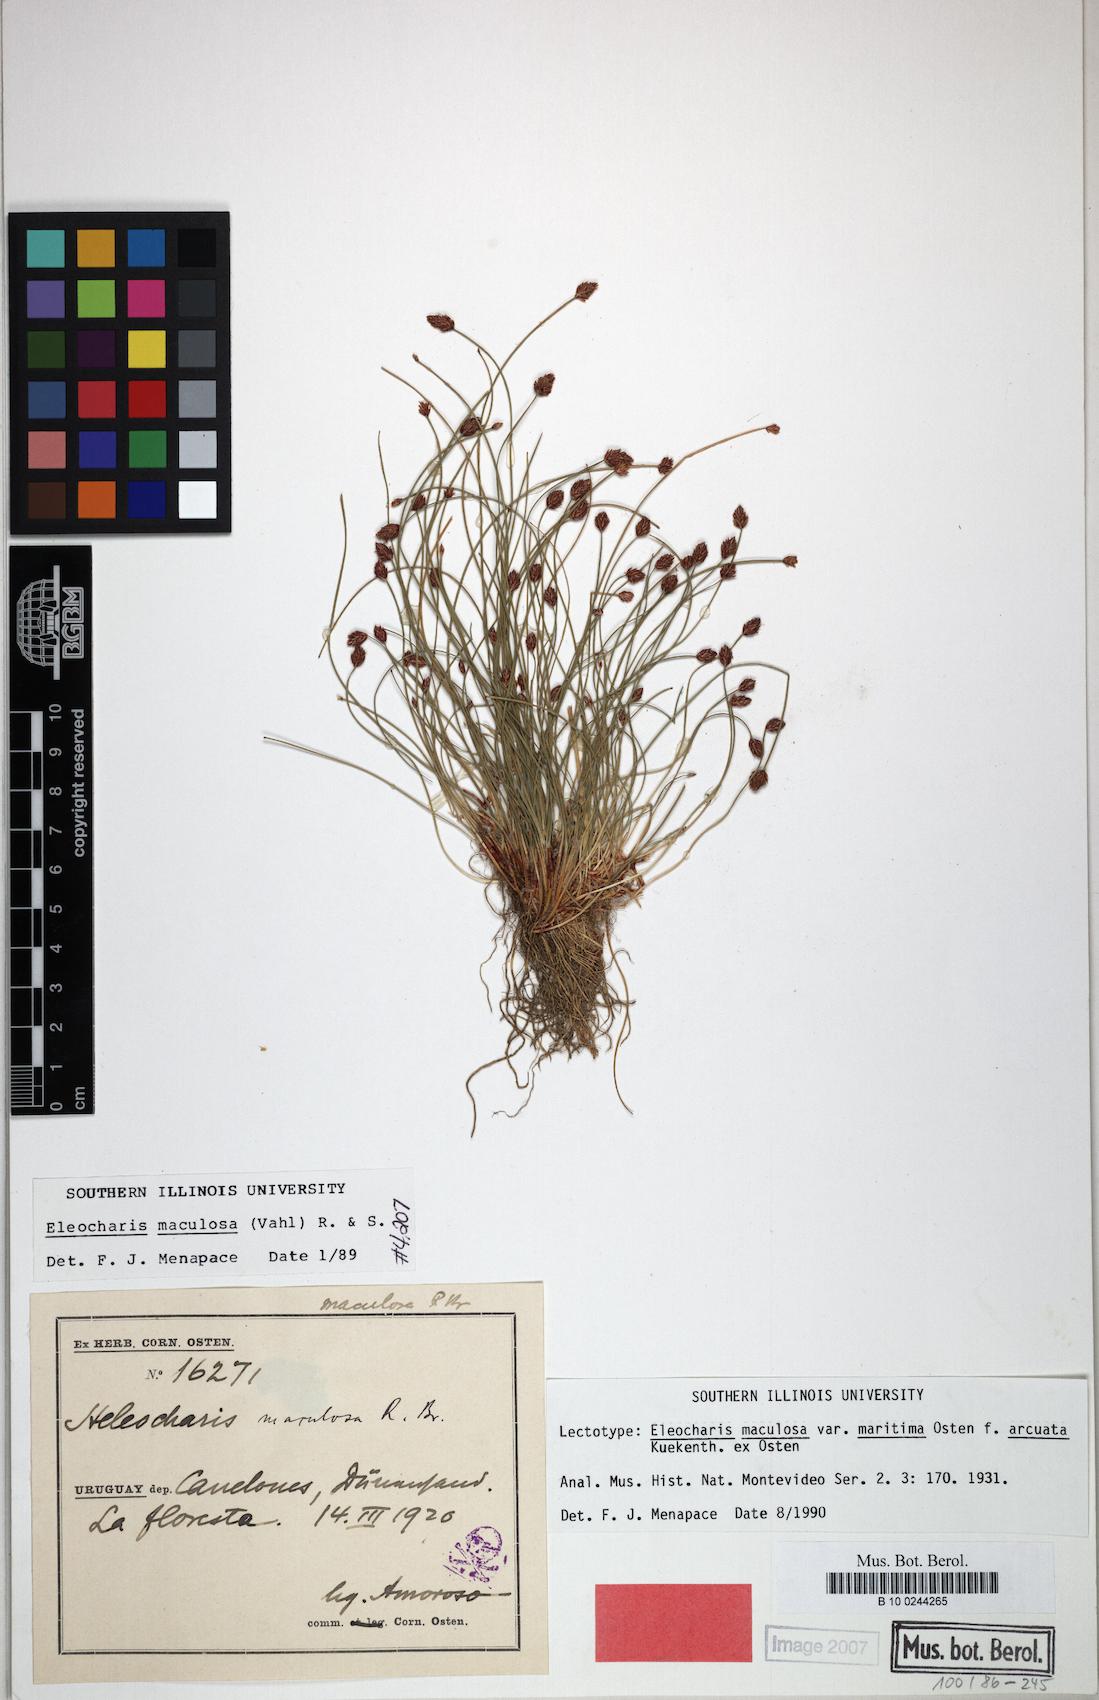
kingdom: Plantae
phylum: Tracheophyta
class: Liliopsida
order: Poales
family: Cyperaceae
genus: Eleocharis
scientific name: Eleocharis maculosa
